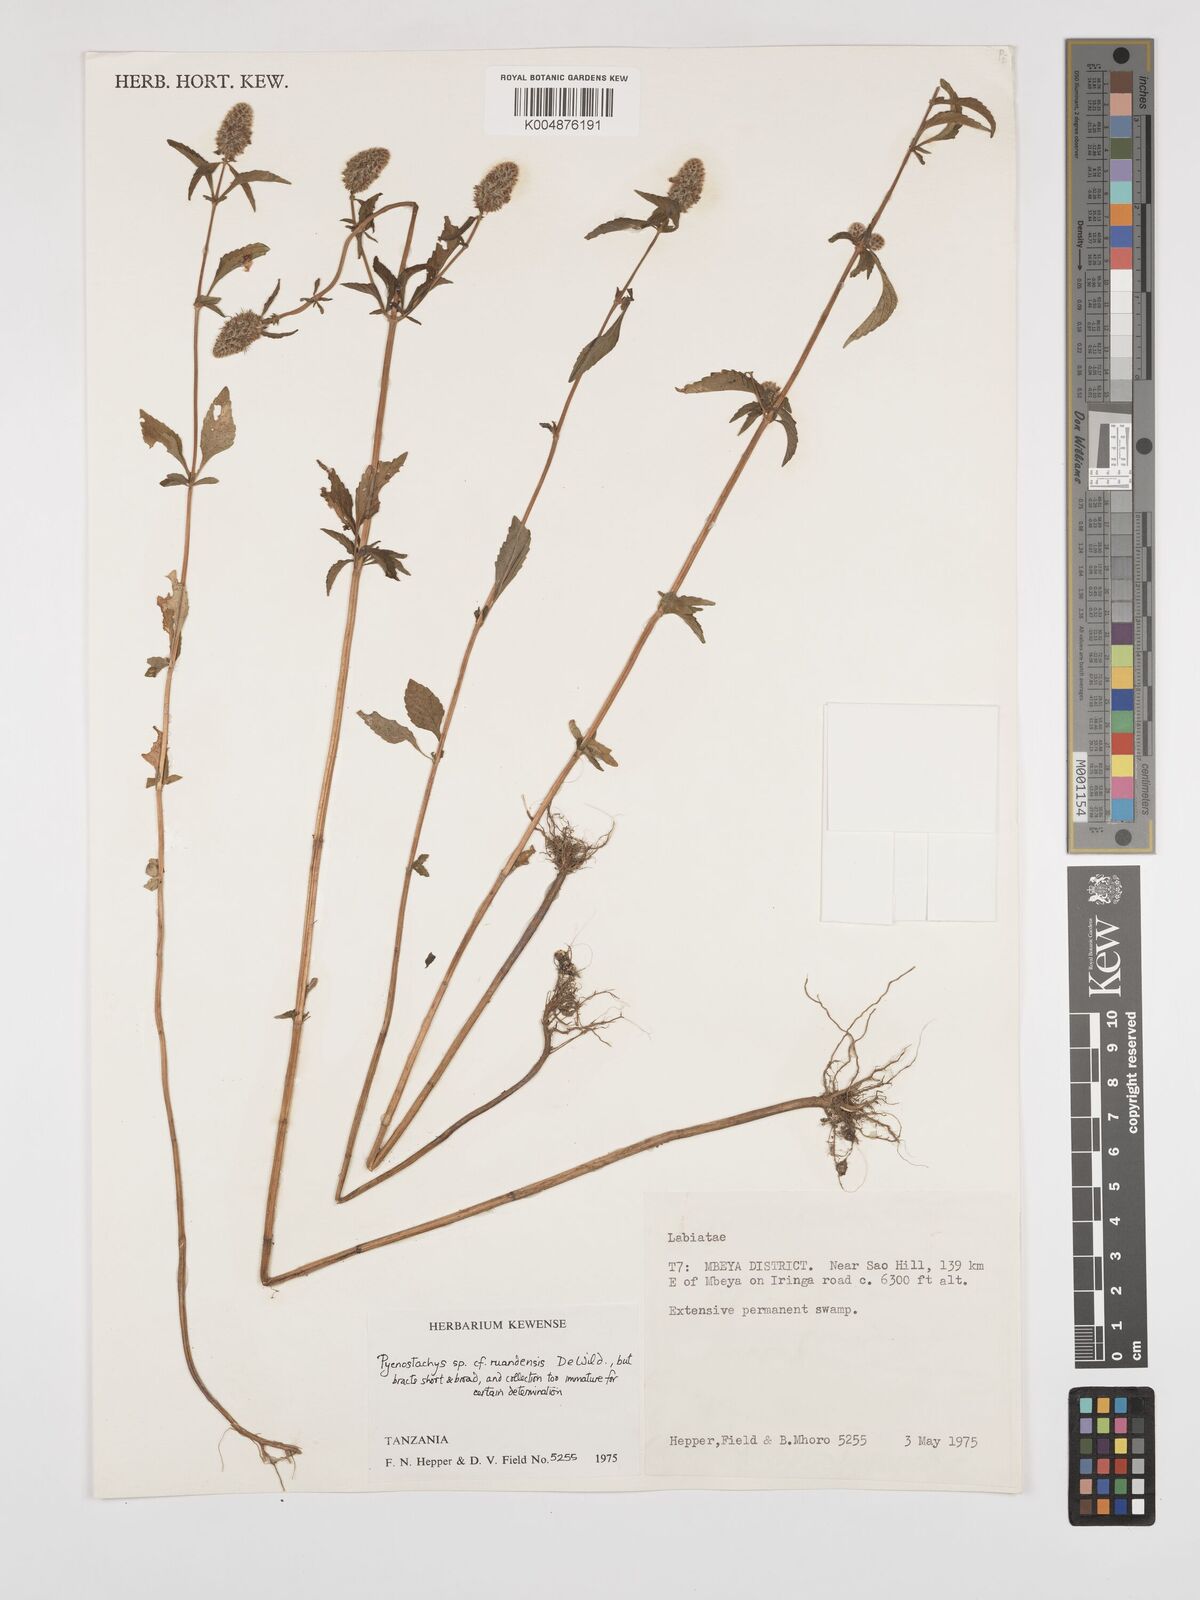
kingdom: Plantae
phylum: Tracheophyta
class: Magnoliopsida
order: Lamiales
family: Lamiaceae
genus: Coleus
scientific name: Coleus ruandensis
